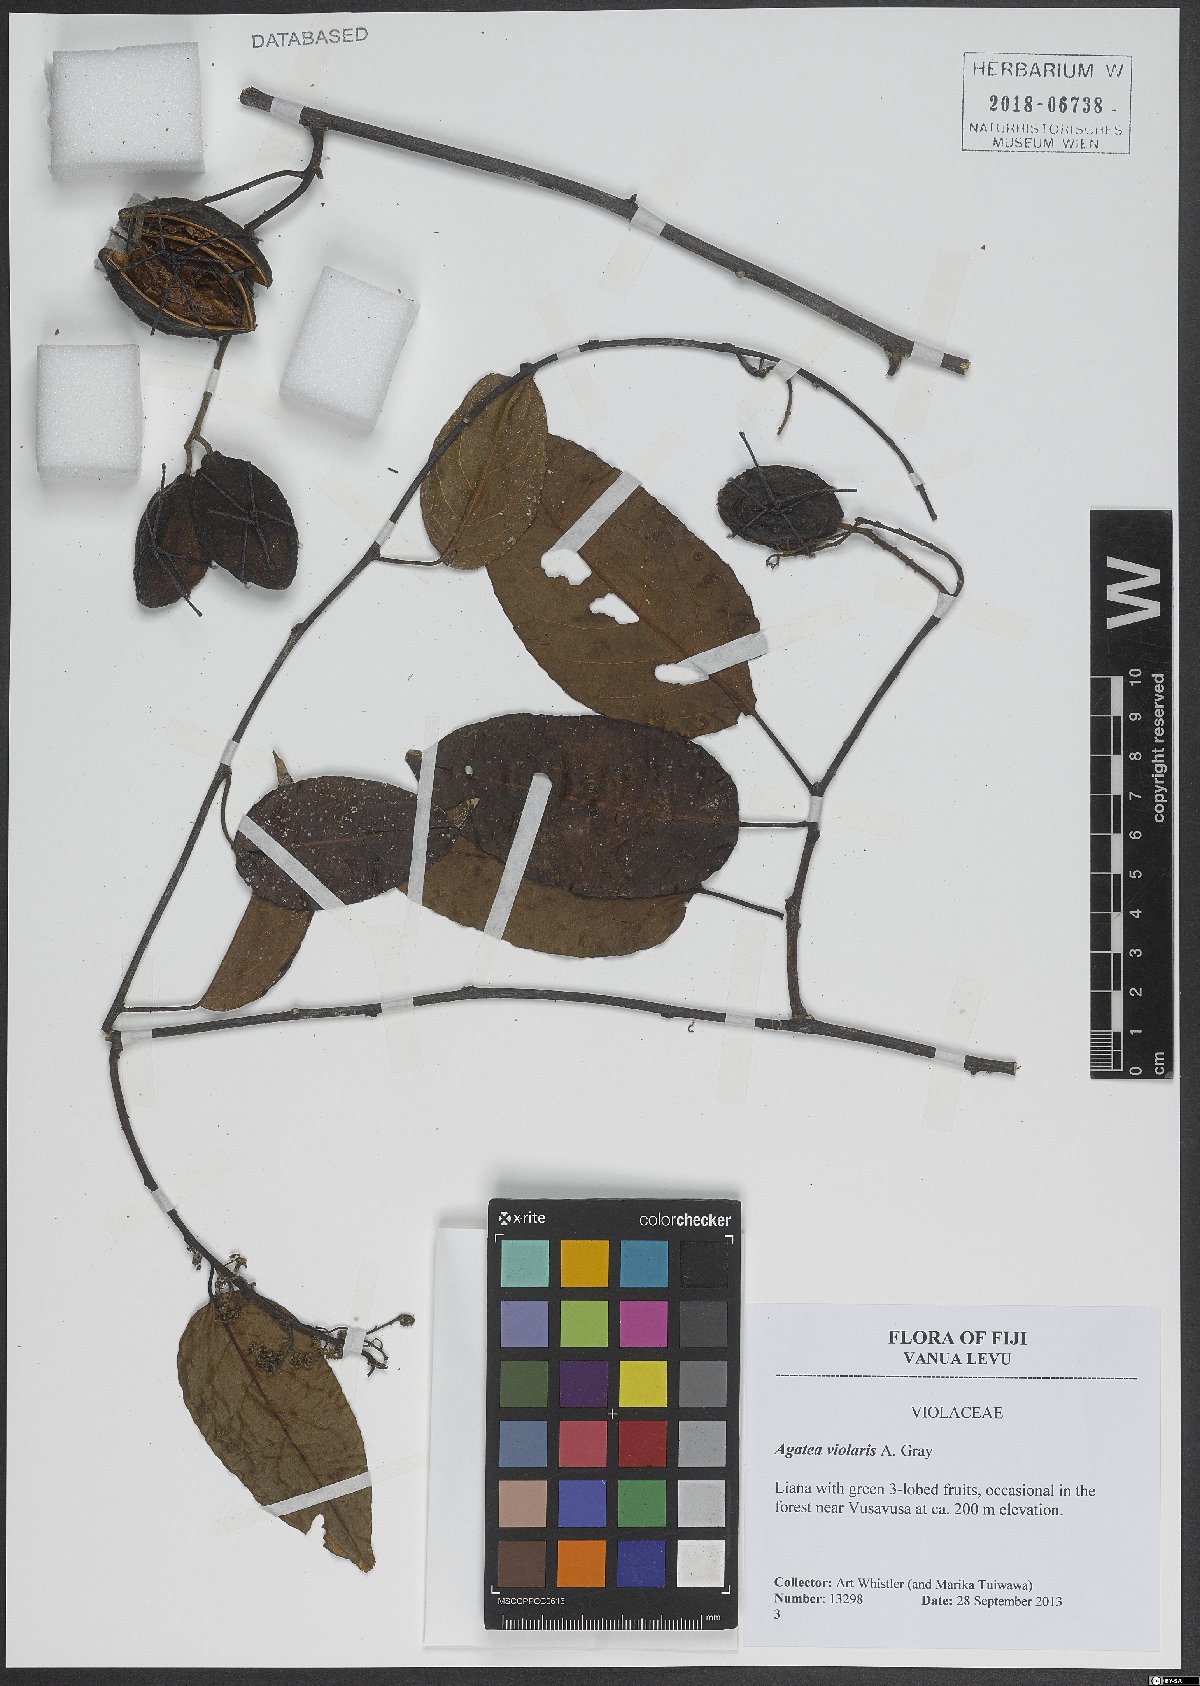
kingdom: Plantae
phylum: Tracheophyta
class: Magnoliopsida
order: Malpighiales
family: Violaceae
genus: Agatea
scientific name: Agatea violaris
